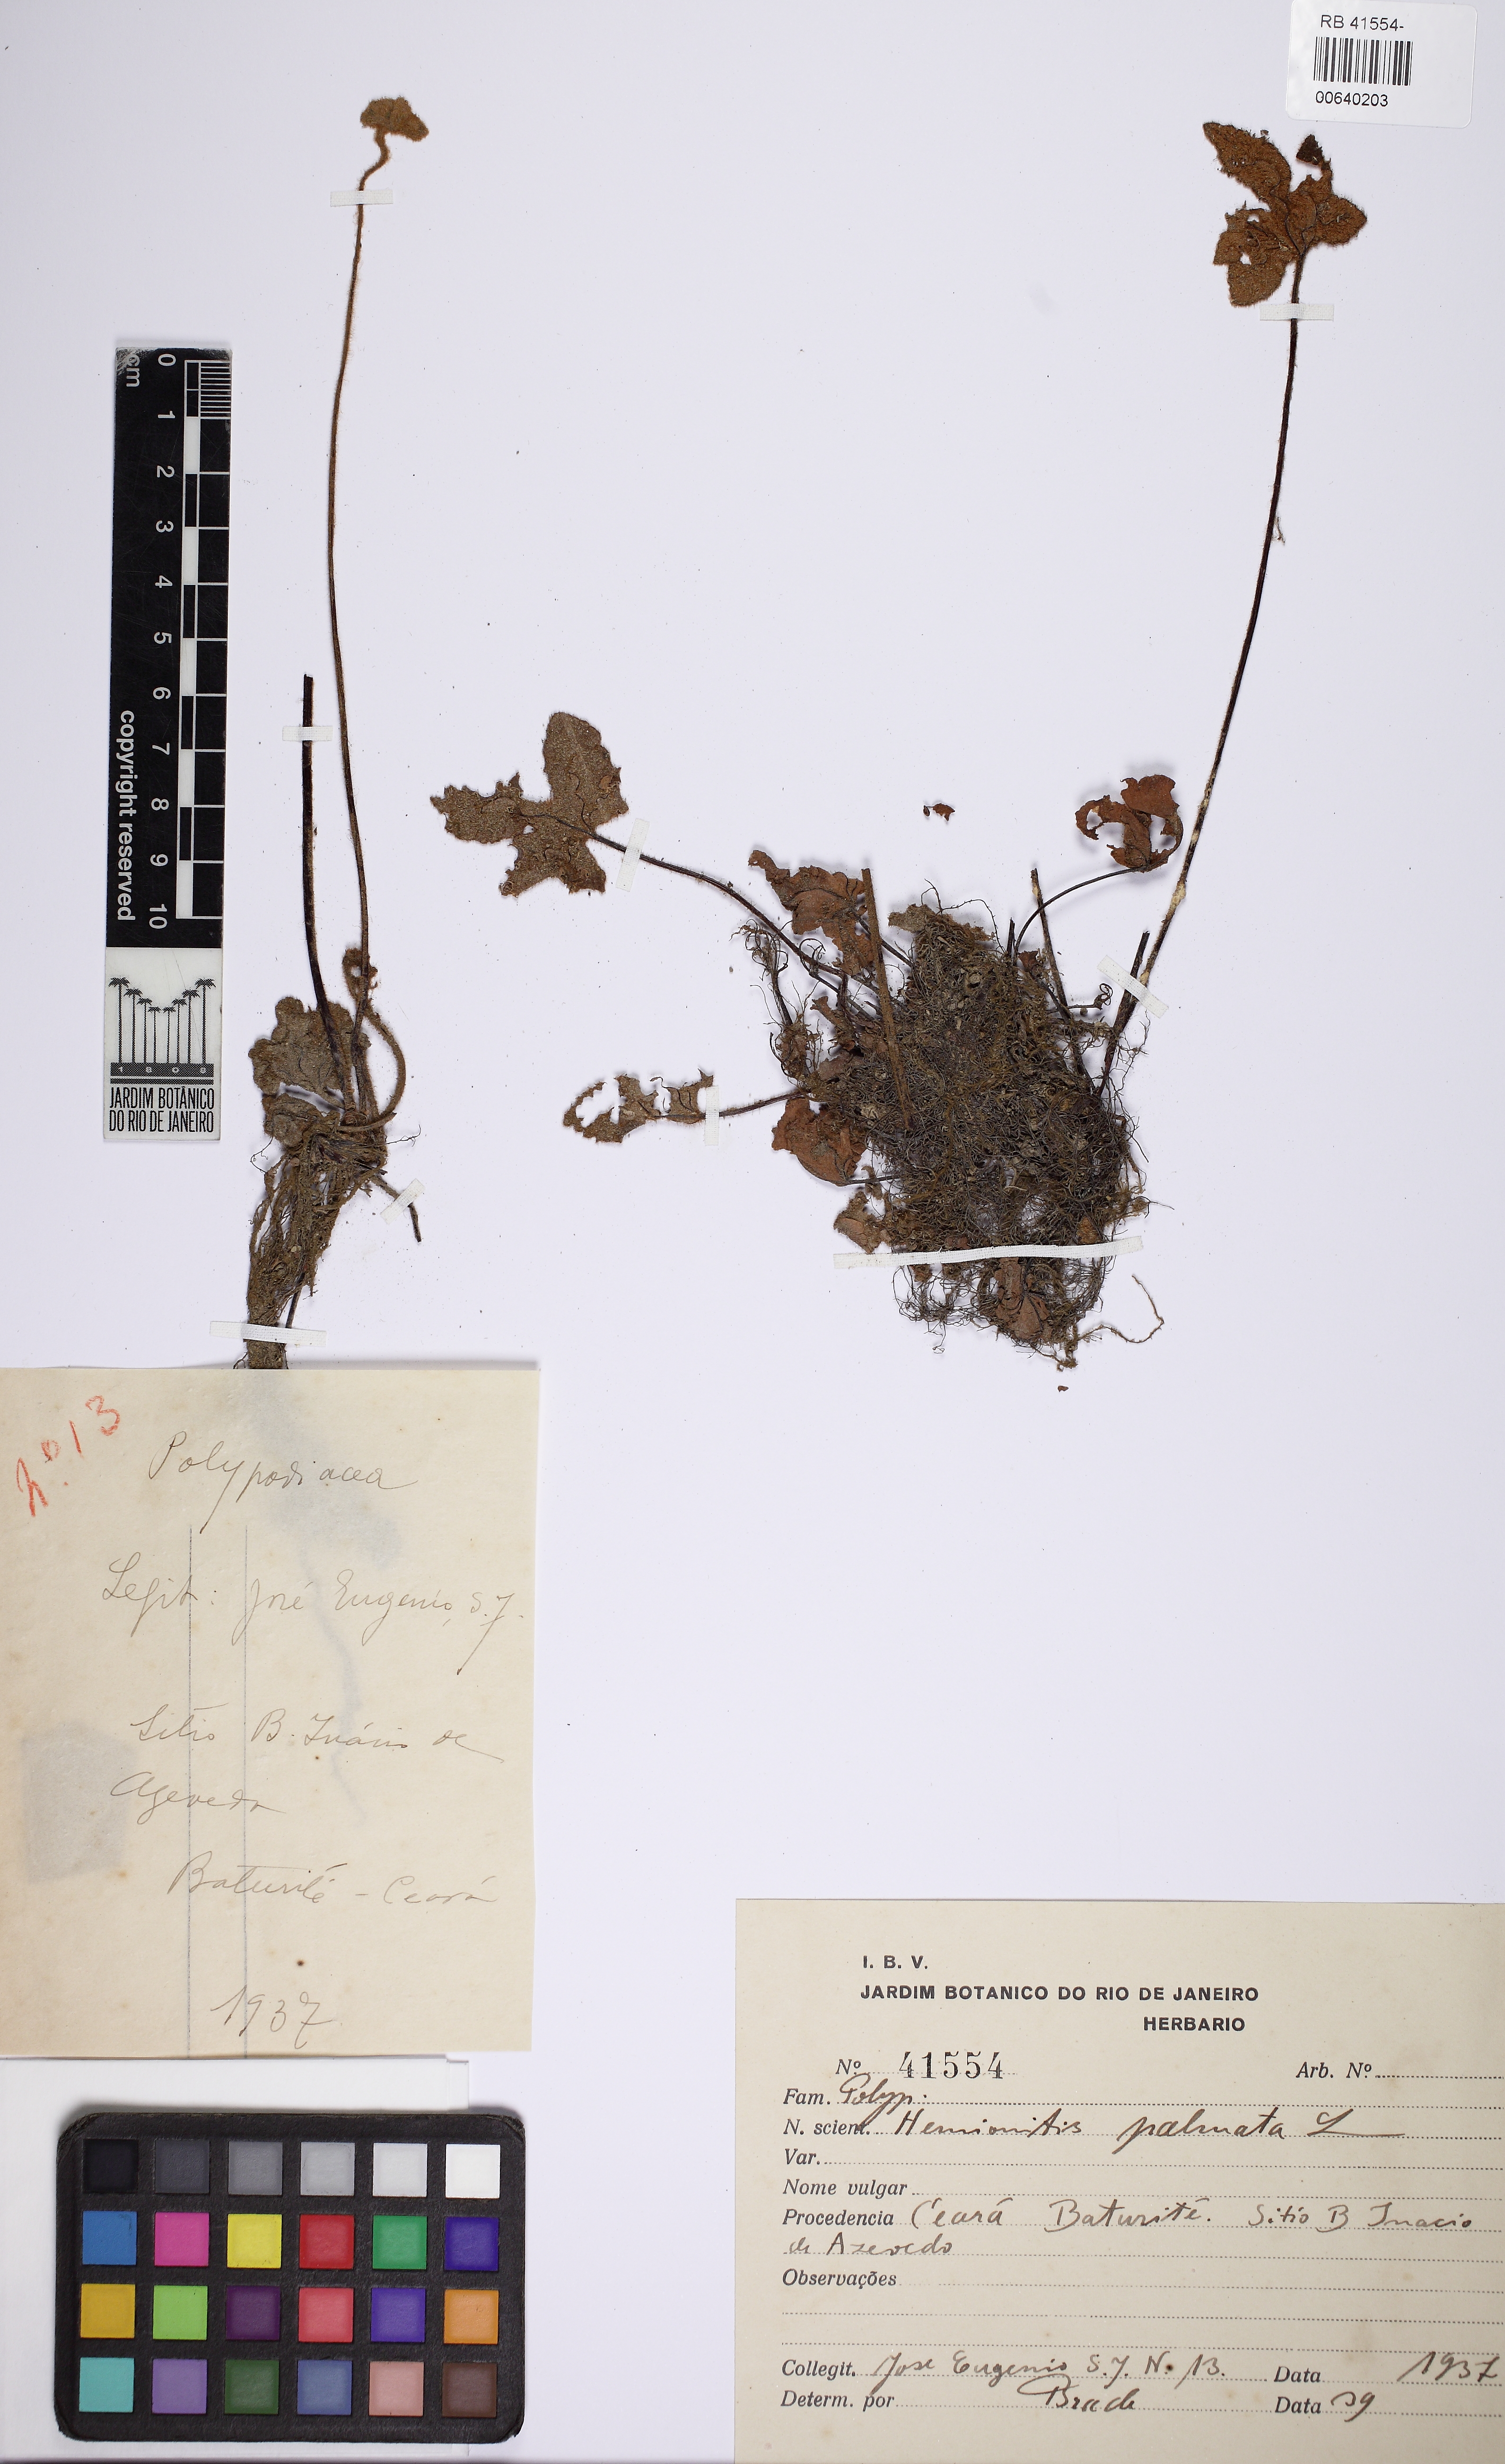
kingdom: Plantae
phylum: Tracheophyta
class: Polypodiopsida
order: Polypodiales
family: Pteridaceae
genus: Hemionitis
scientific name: Hemionitis palmata
